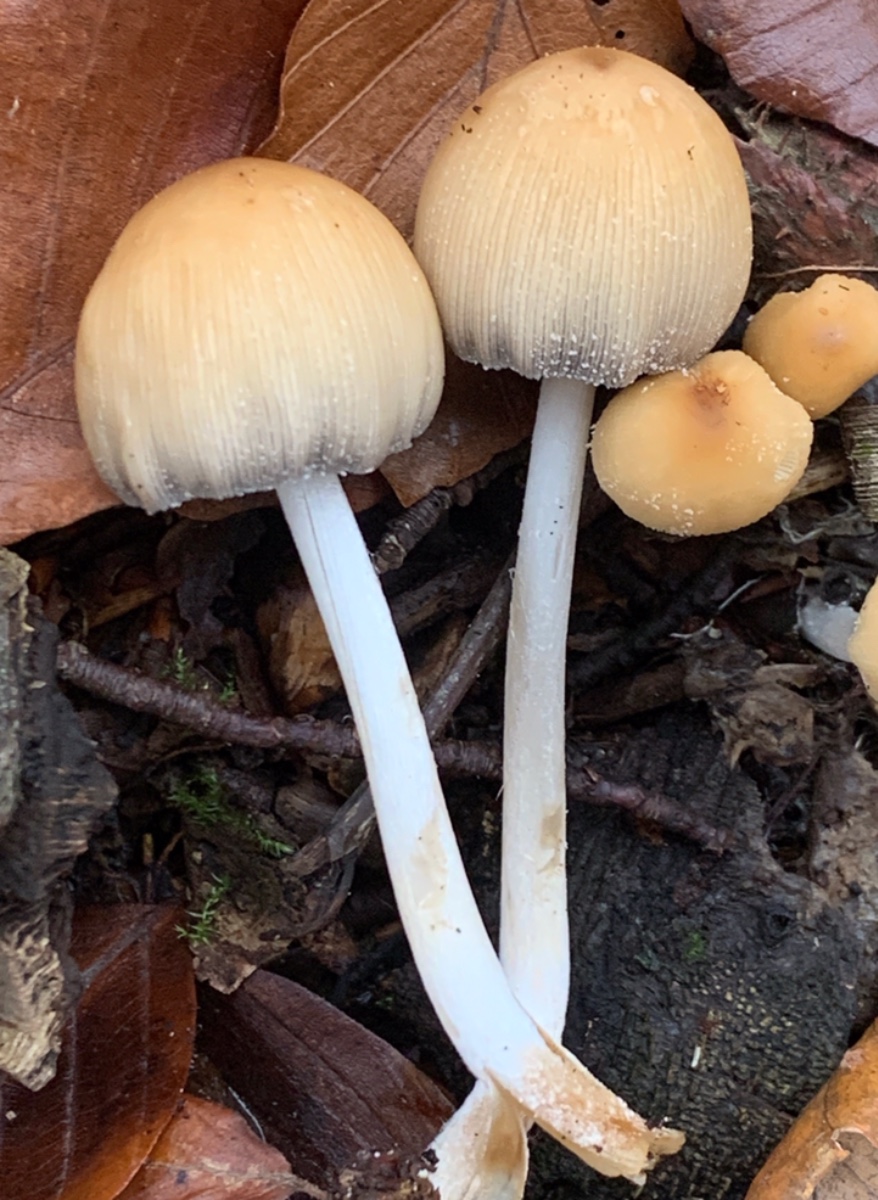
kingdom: Fungi
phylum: Basidiomycota
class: Agaricomycetes
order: Agaricales
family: Psathyrellaceae
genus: Coprinellus
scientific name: Coprinellus micaceus
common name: glimmer-blækhat
